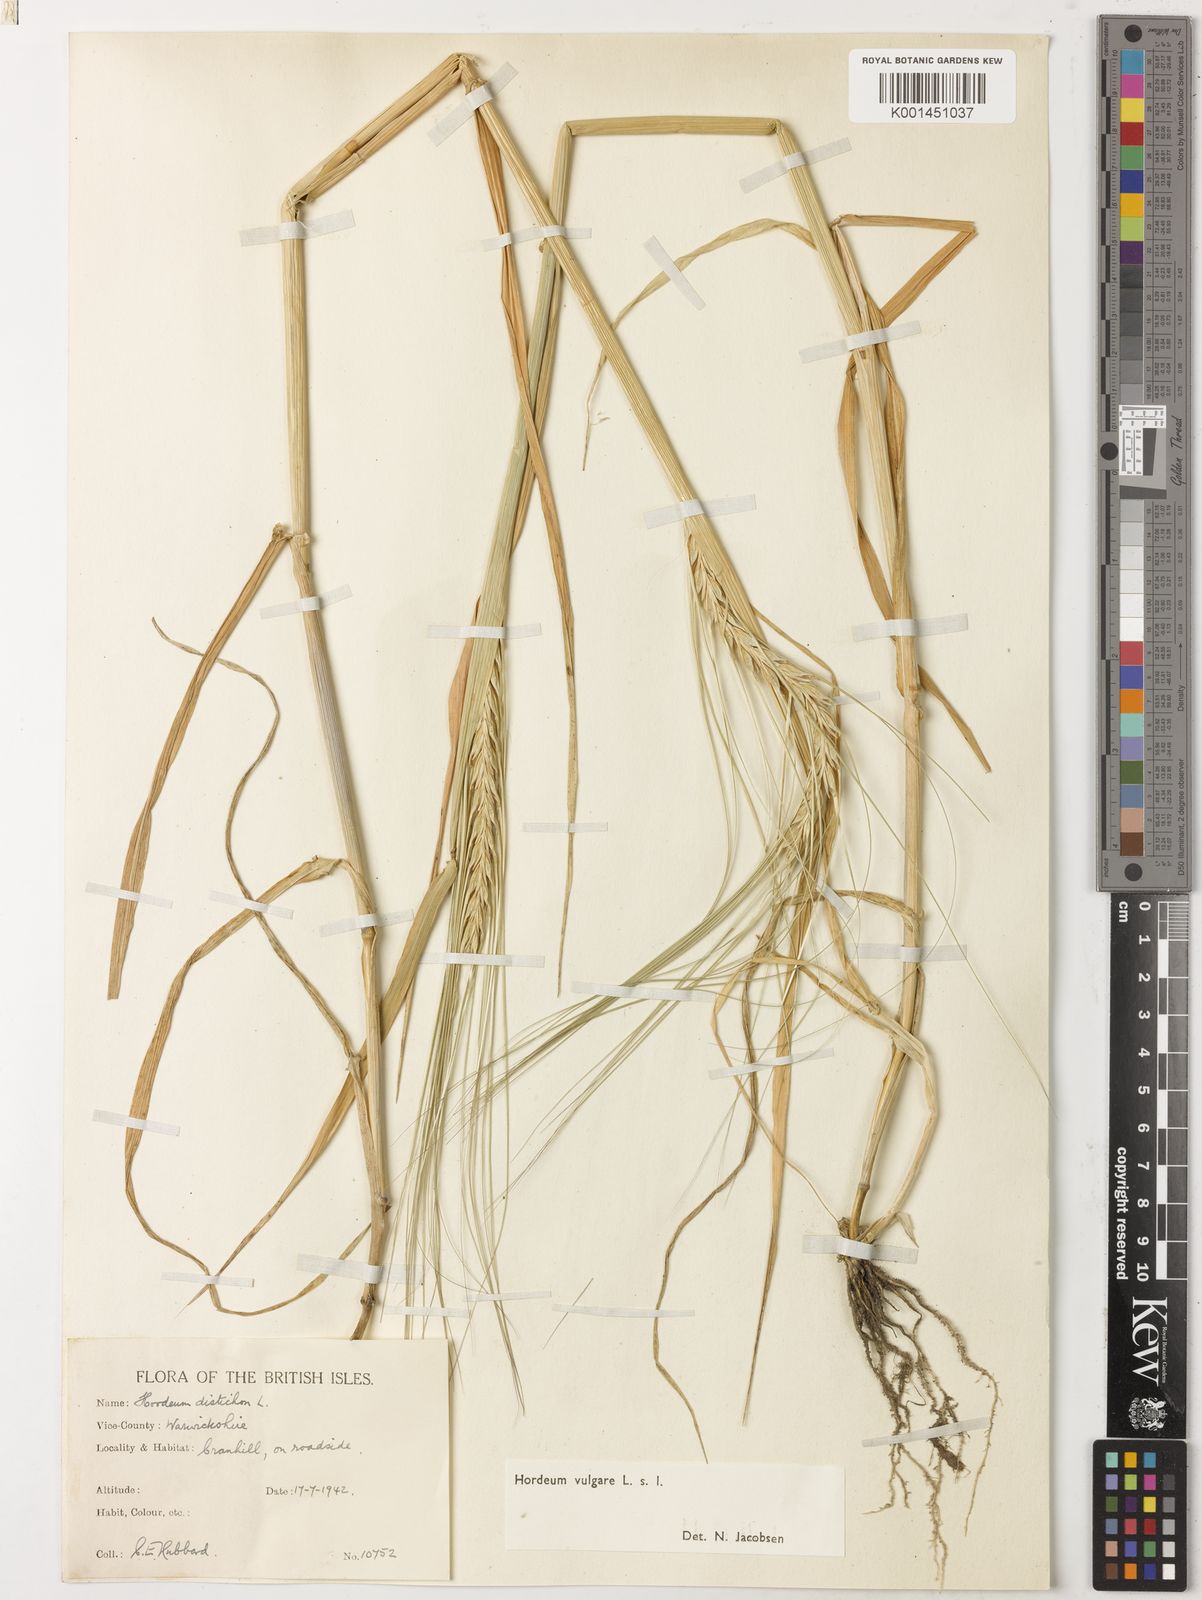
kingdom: Plantae
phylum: Tracheophyta
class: Liliopsida
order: Poales
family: Poaceae
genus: Hordeum
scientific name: Hordeum vulgare
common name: Common barley
